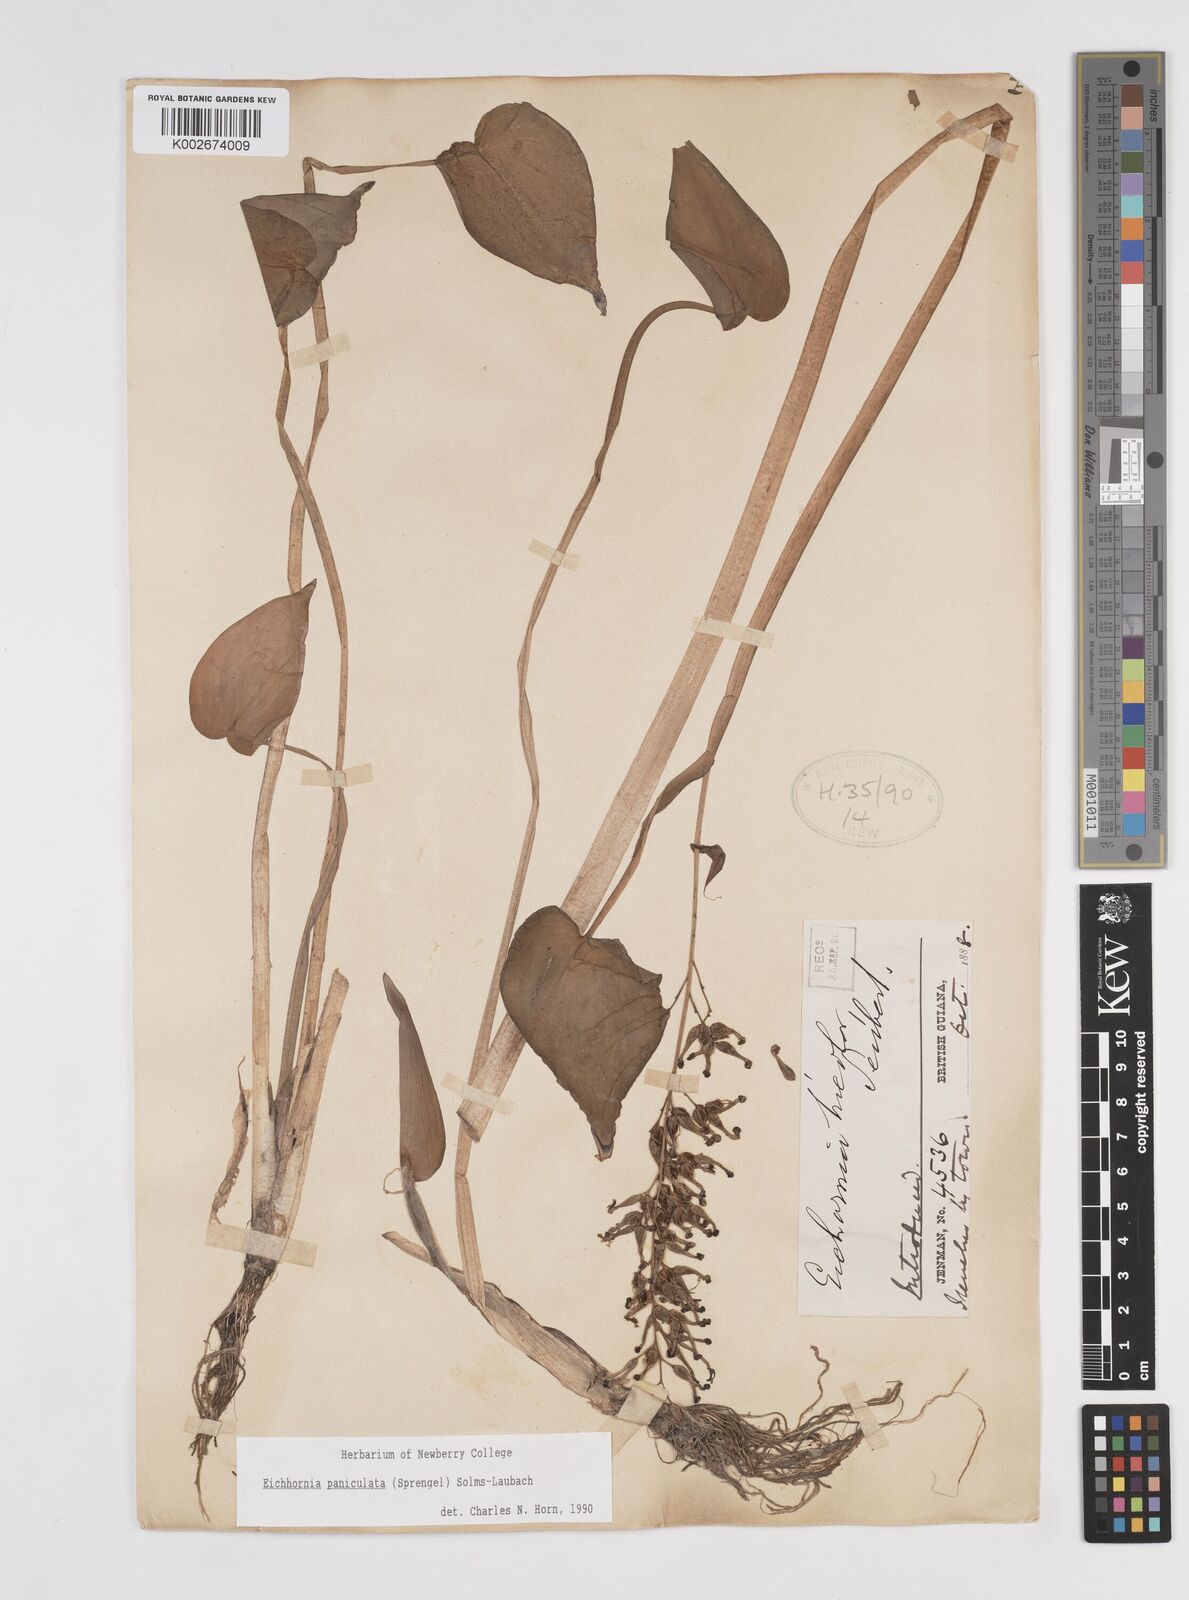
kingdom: Plantae
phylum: Tracheophyta
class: Liliopsida
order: Commelinales
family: Pontederiaceae
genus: Pontederia
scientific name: Pontederia paniculata
